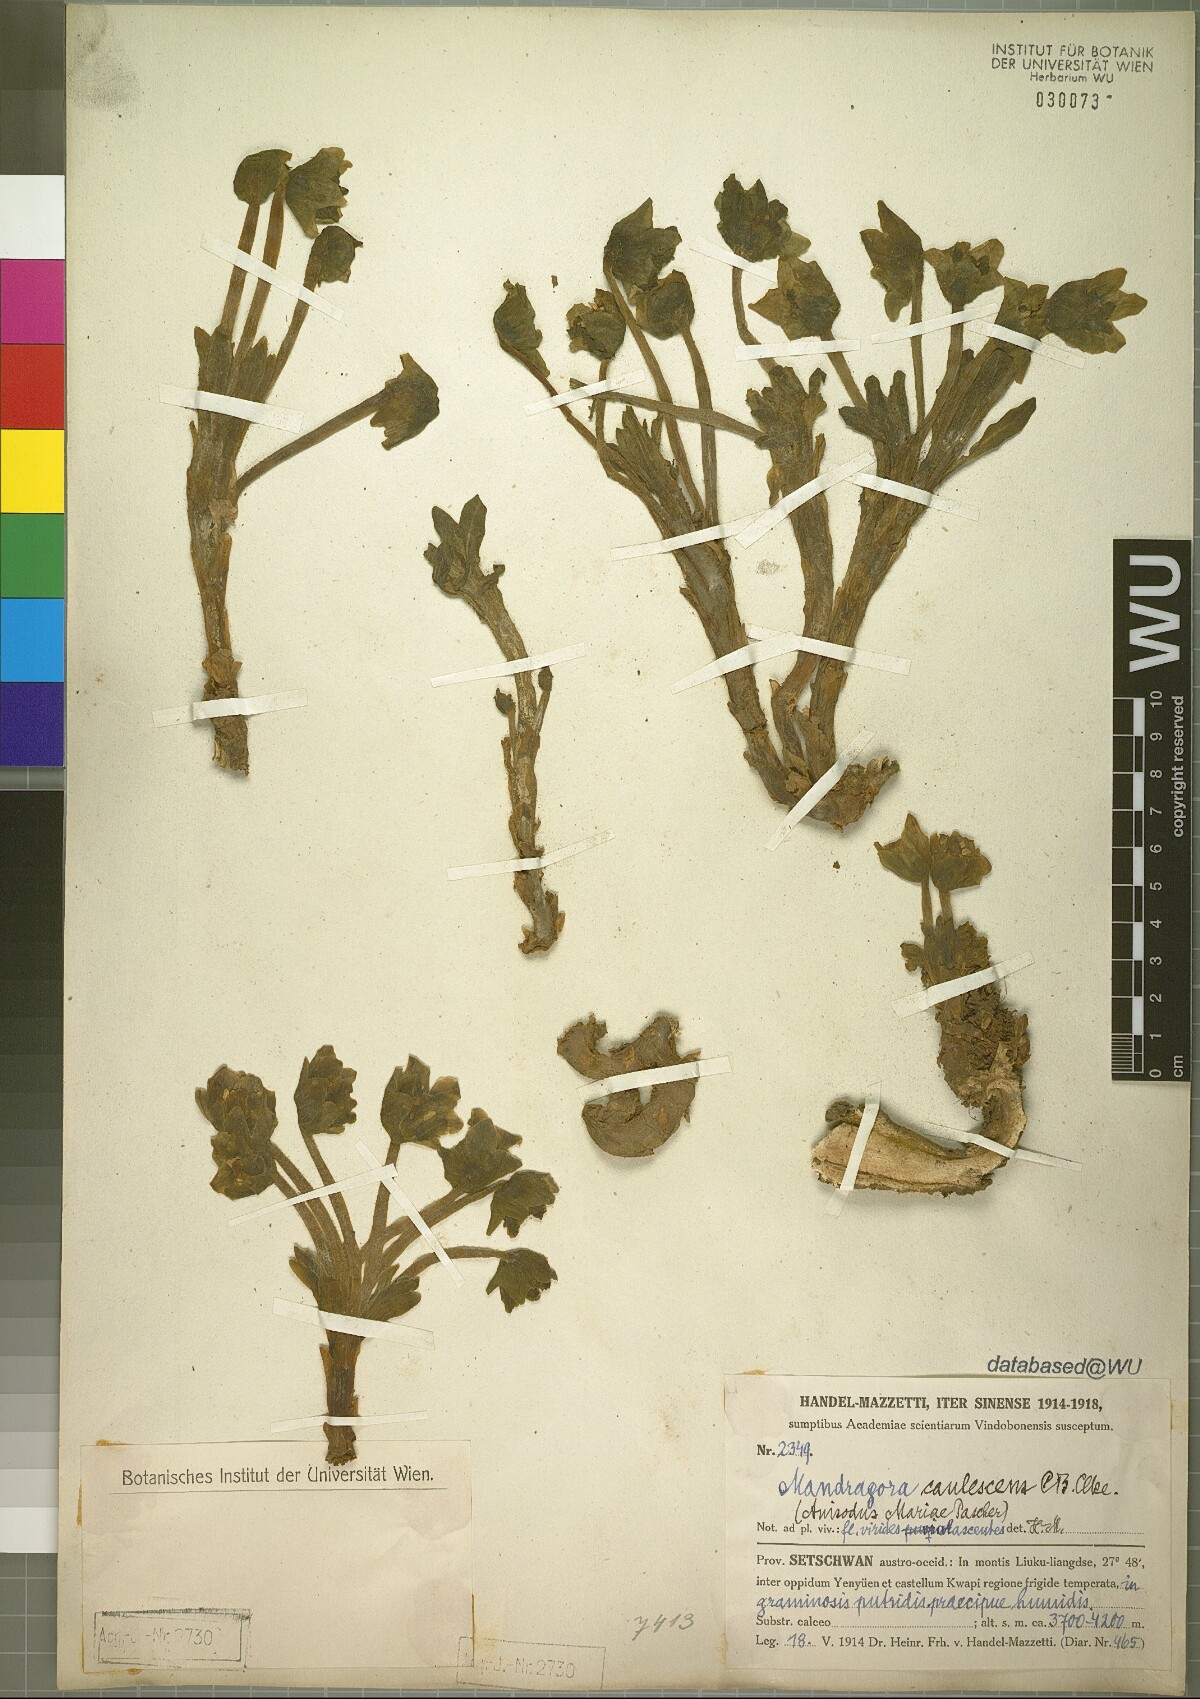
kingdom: Plantae
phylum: Tracheophyta
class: Magnoliopsida
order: Solanales
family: Solanaceae
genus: Mandragora
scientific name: Mandragora caulescens
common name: Himalayan mandrake
